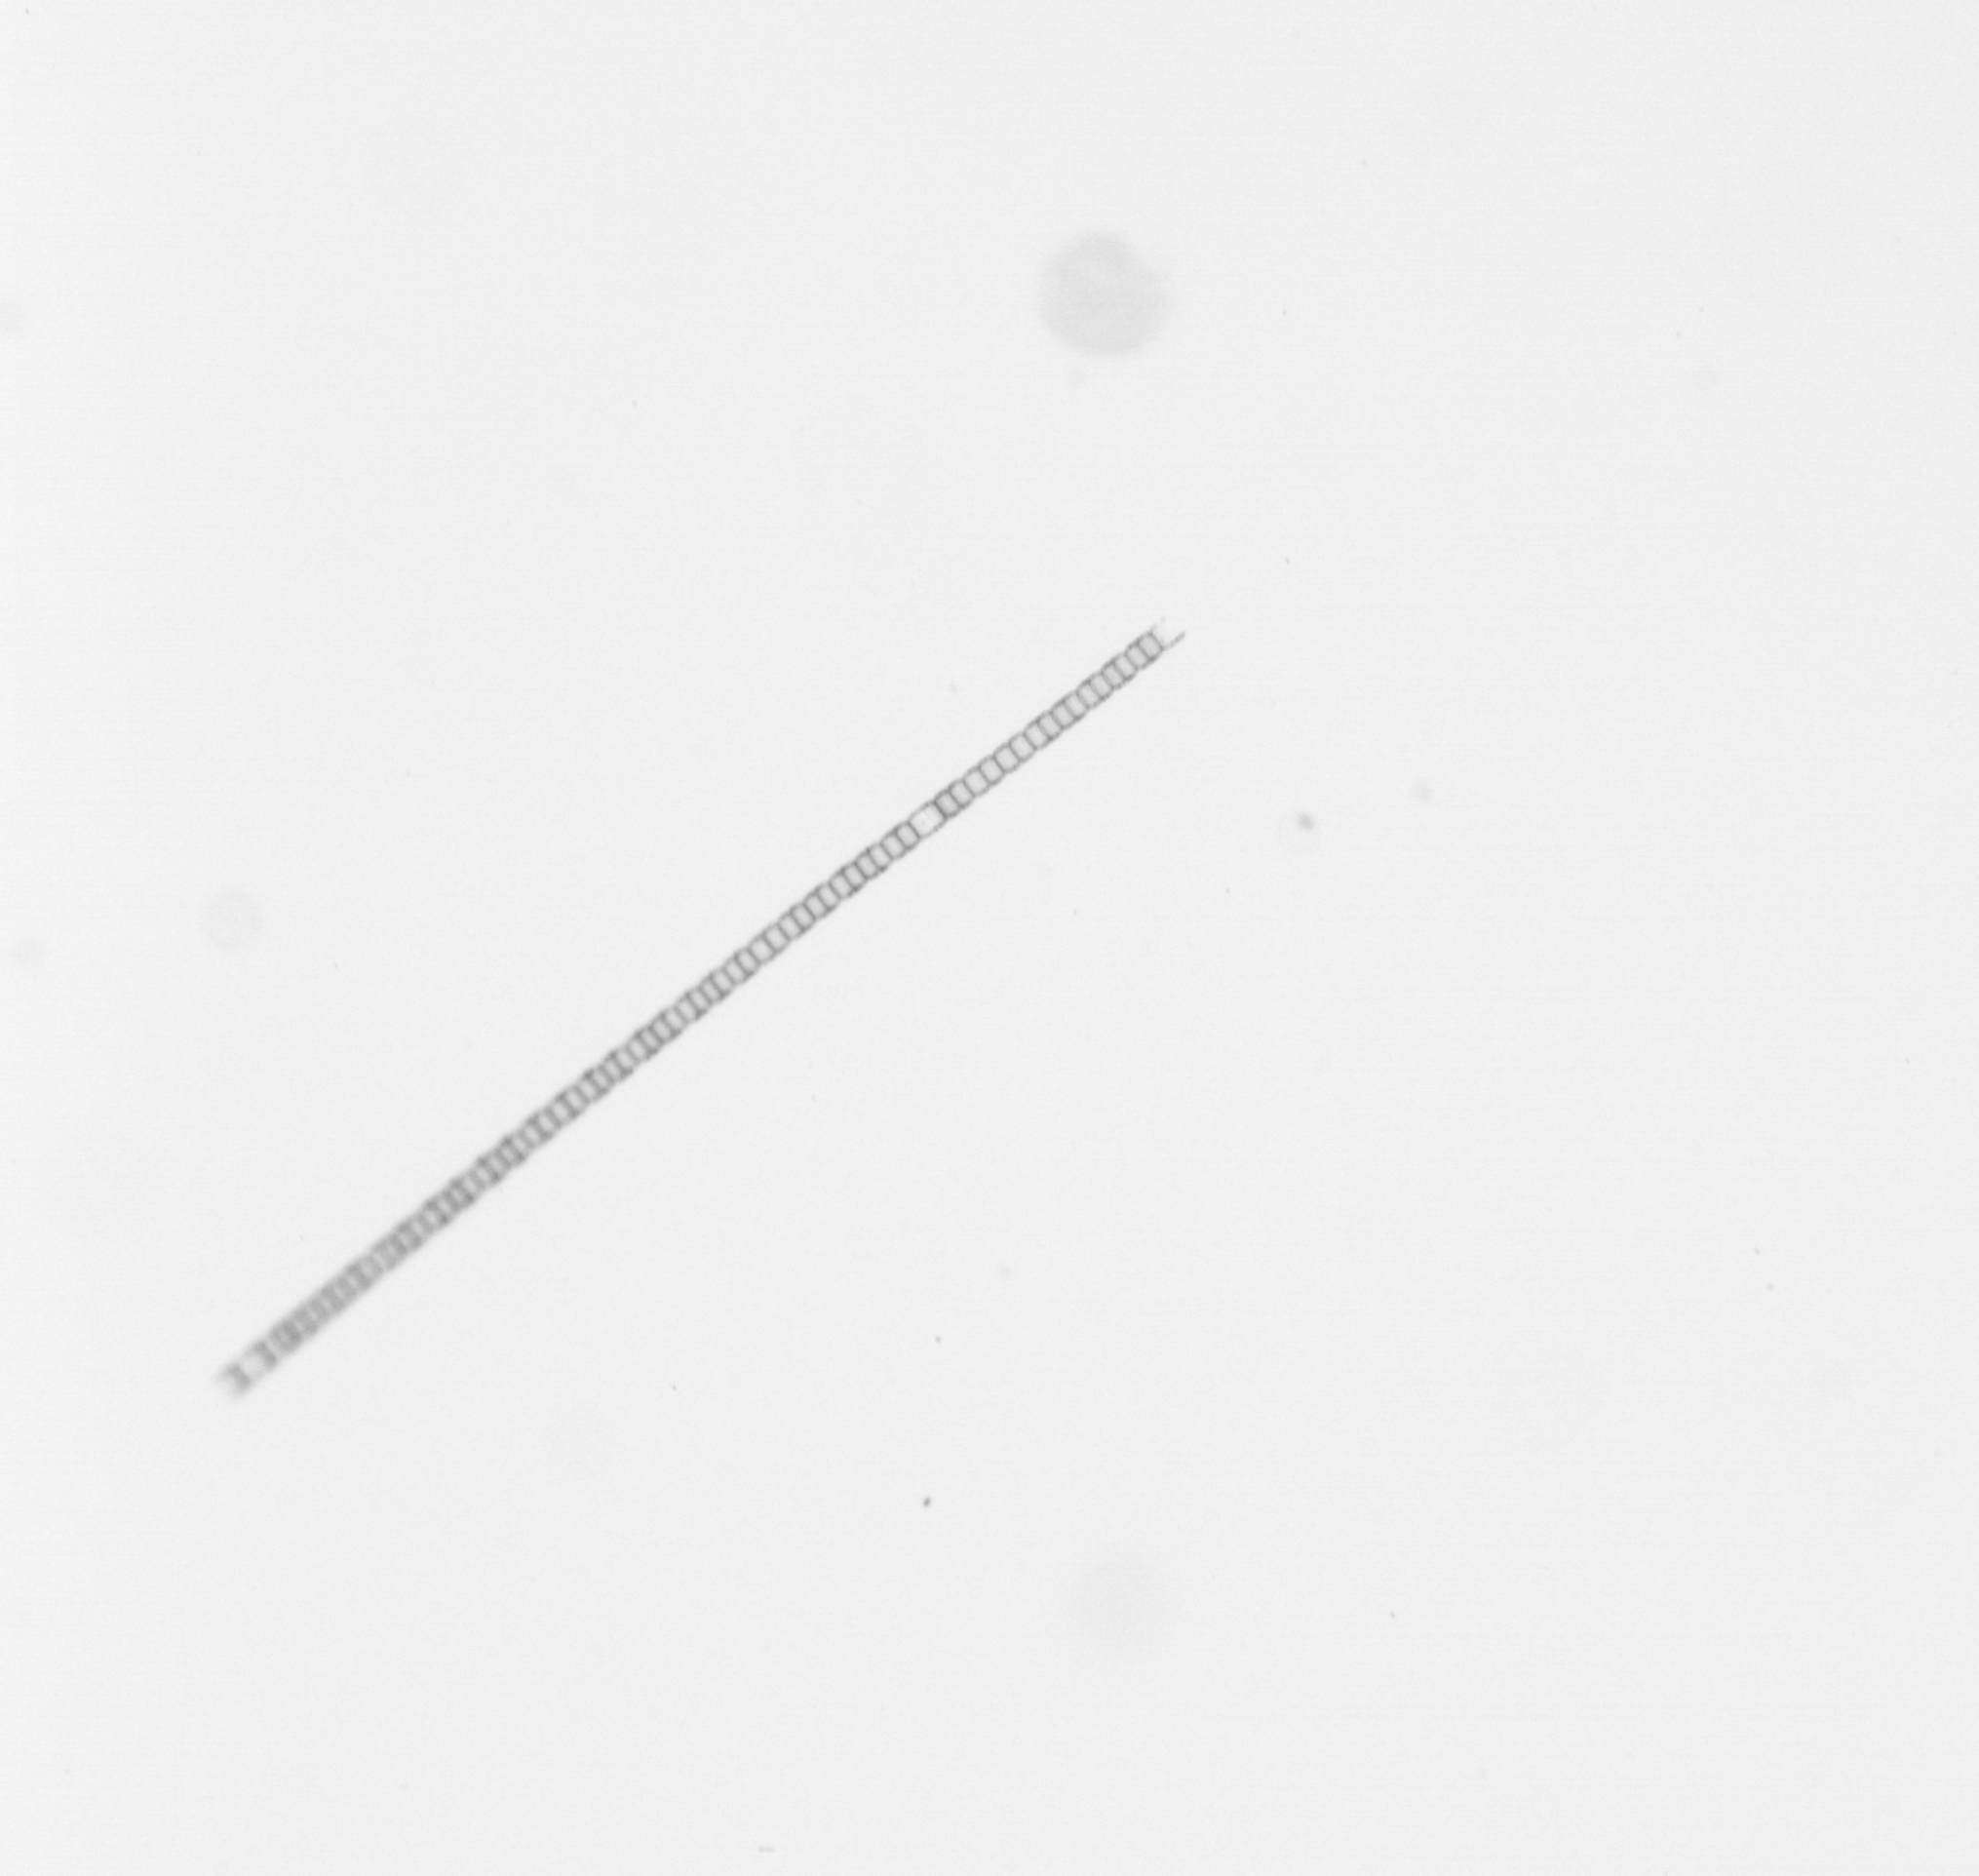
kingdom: Chromista
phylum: Ochrophyta
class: Bacillariophyceae
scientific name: Bacillariophyceae
